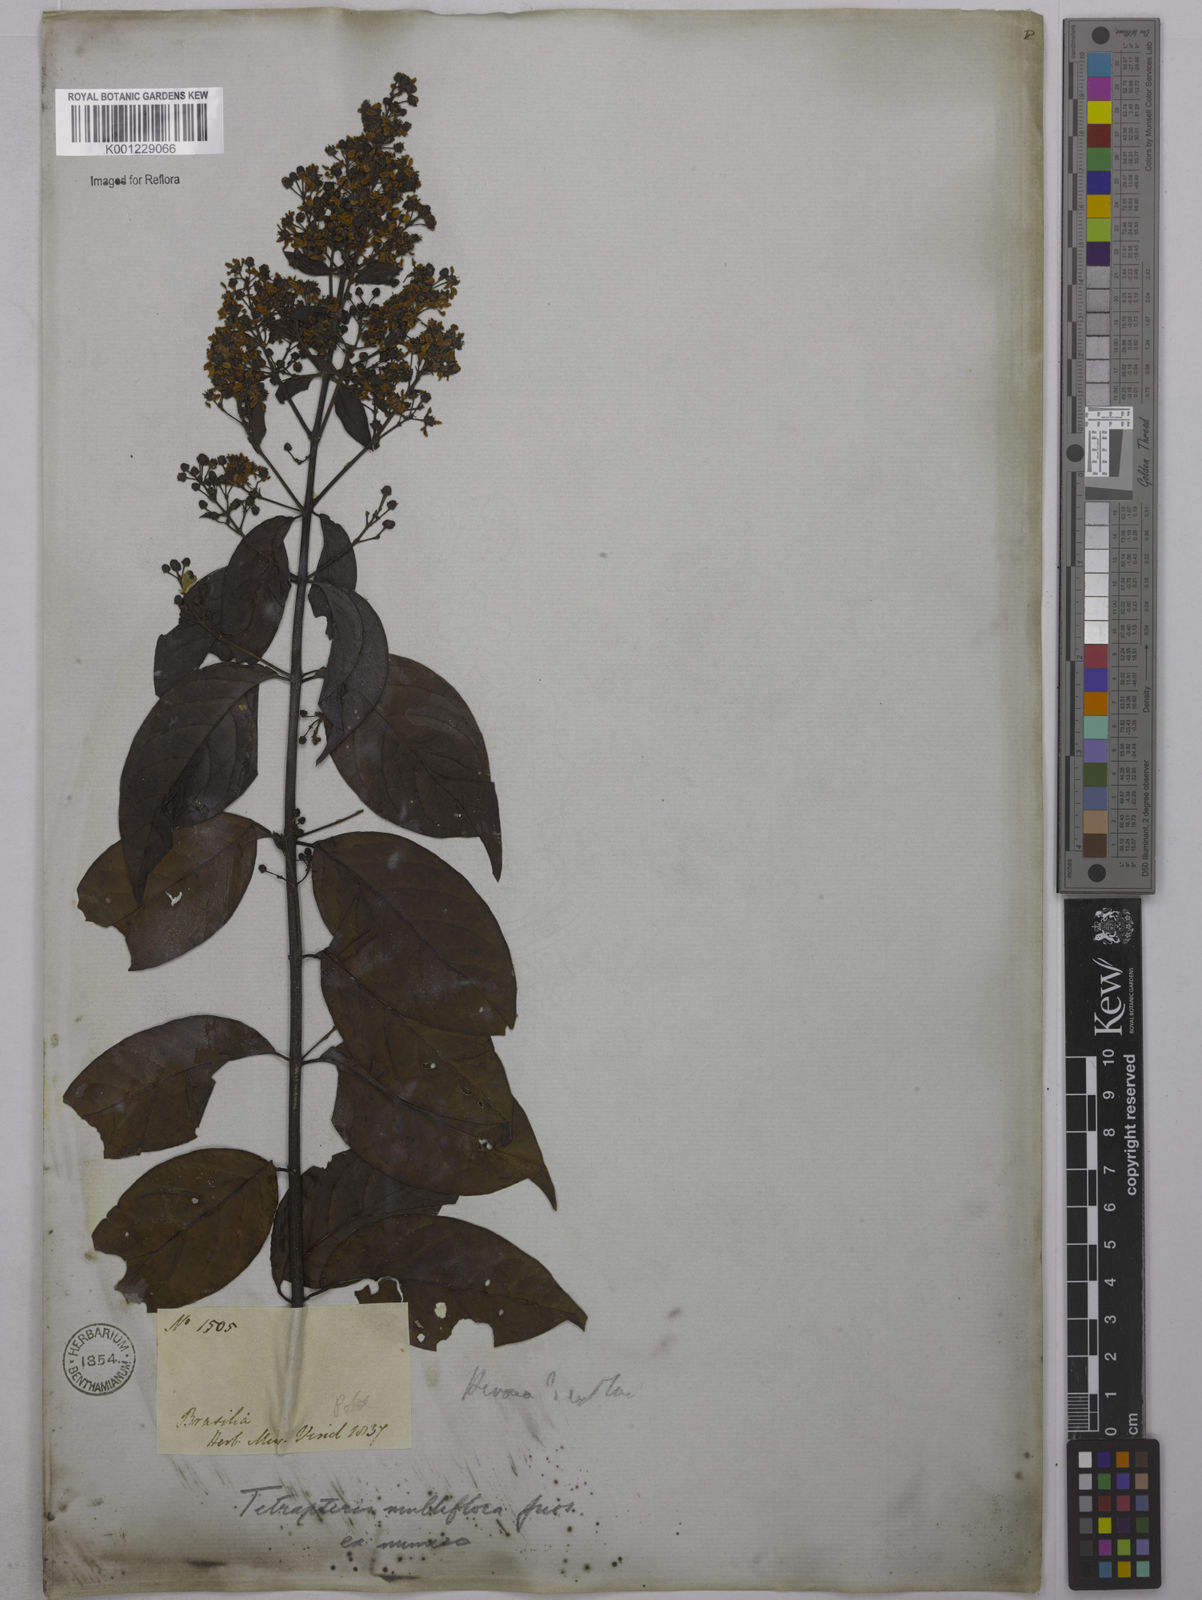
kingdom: Plantae
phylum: Tracheophyta
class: Magnoliopsida
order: Malpighiales
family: Malpighiaceae
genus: Niedenzuella
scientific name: Niedenzuella lucida
